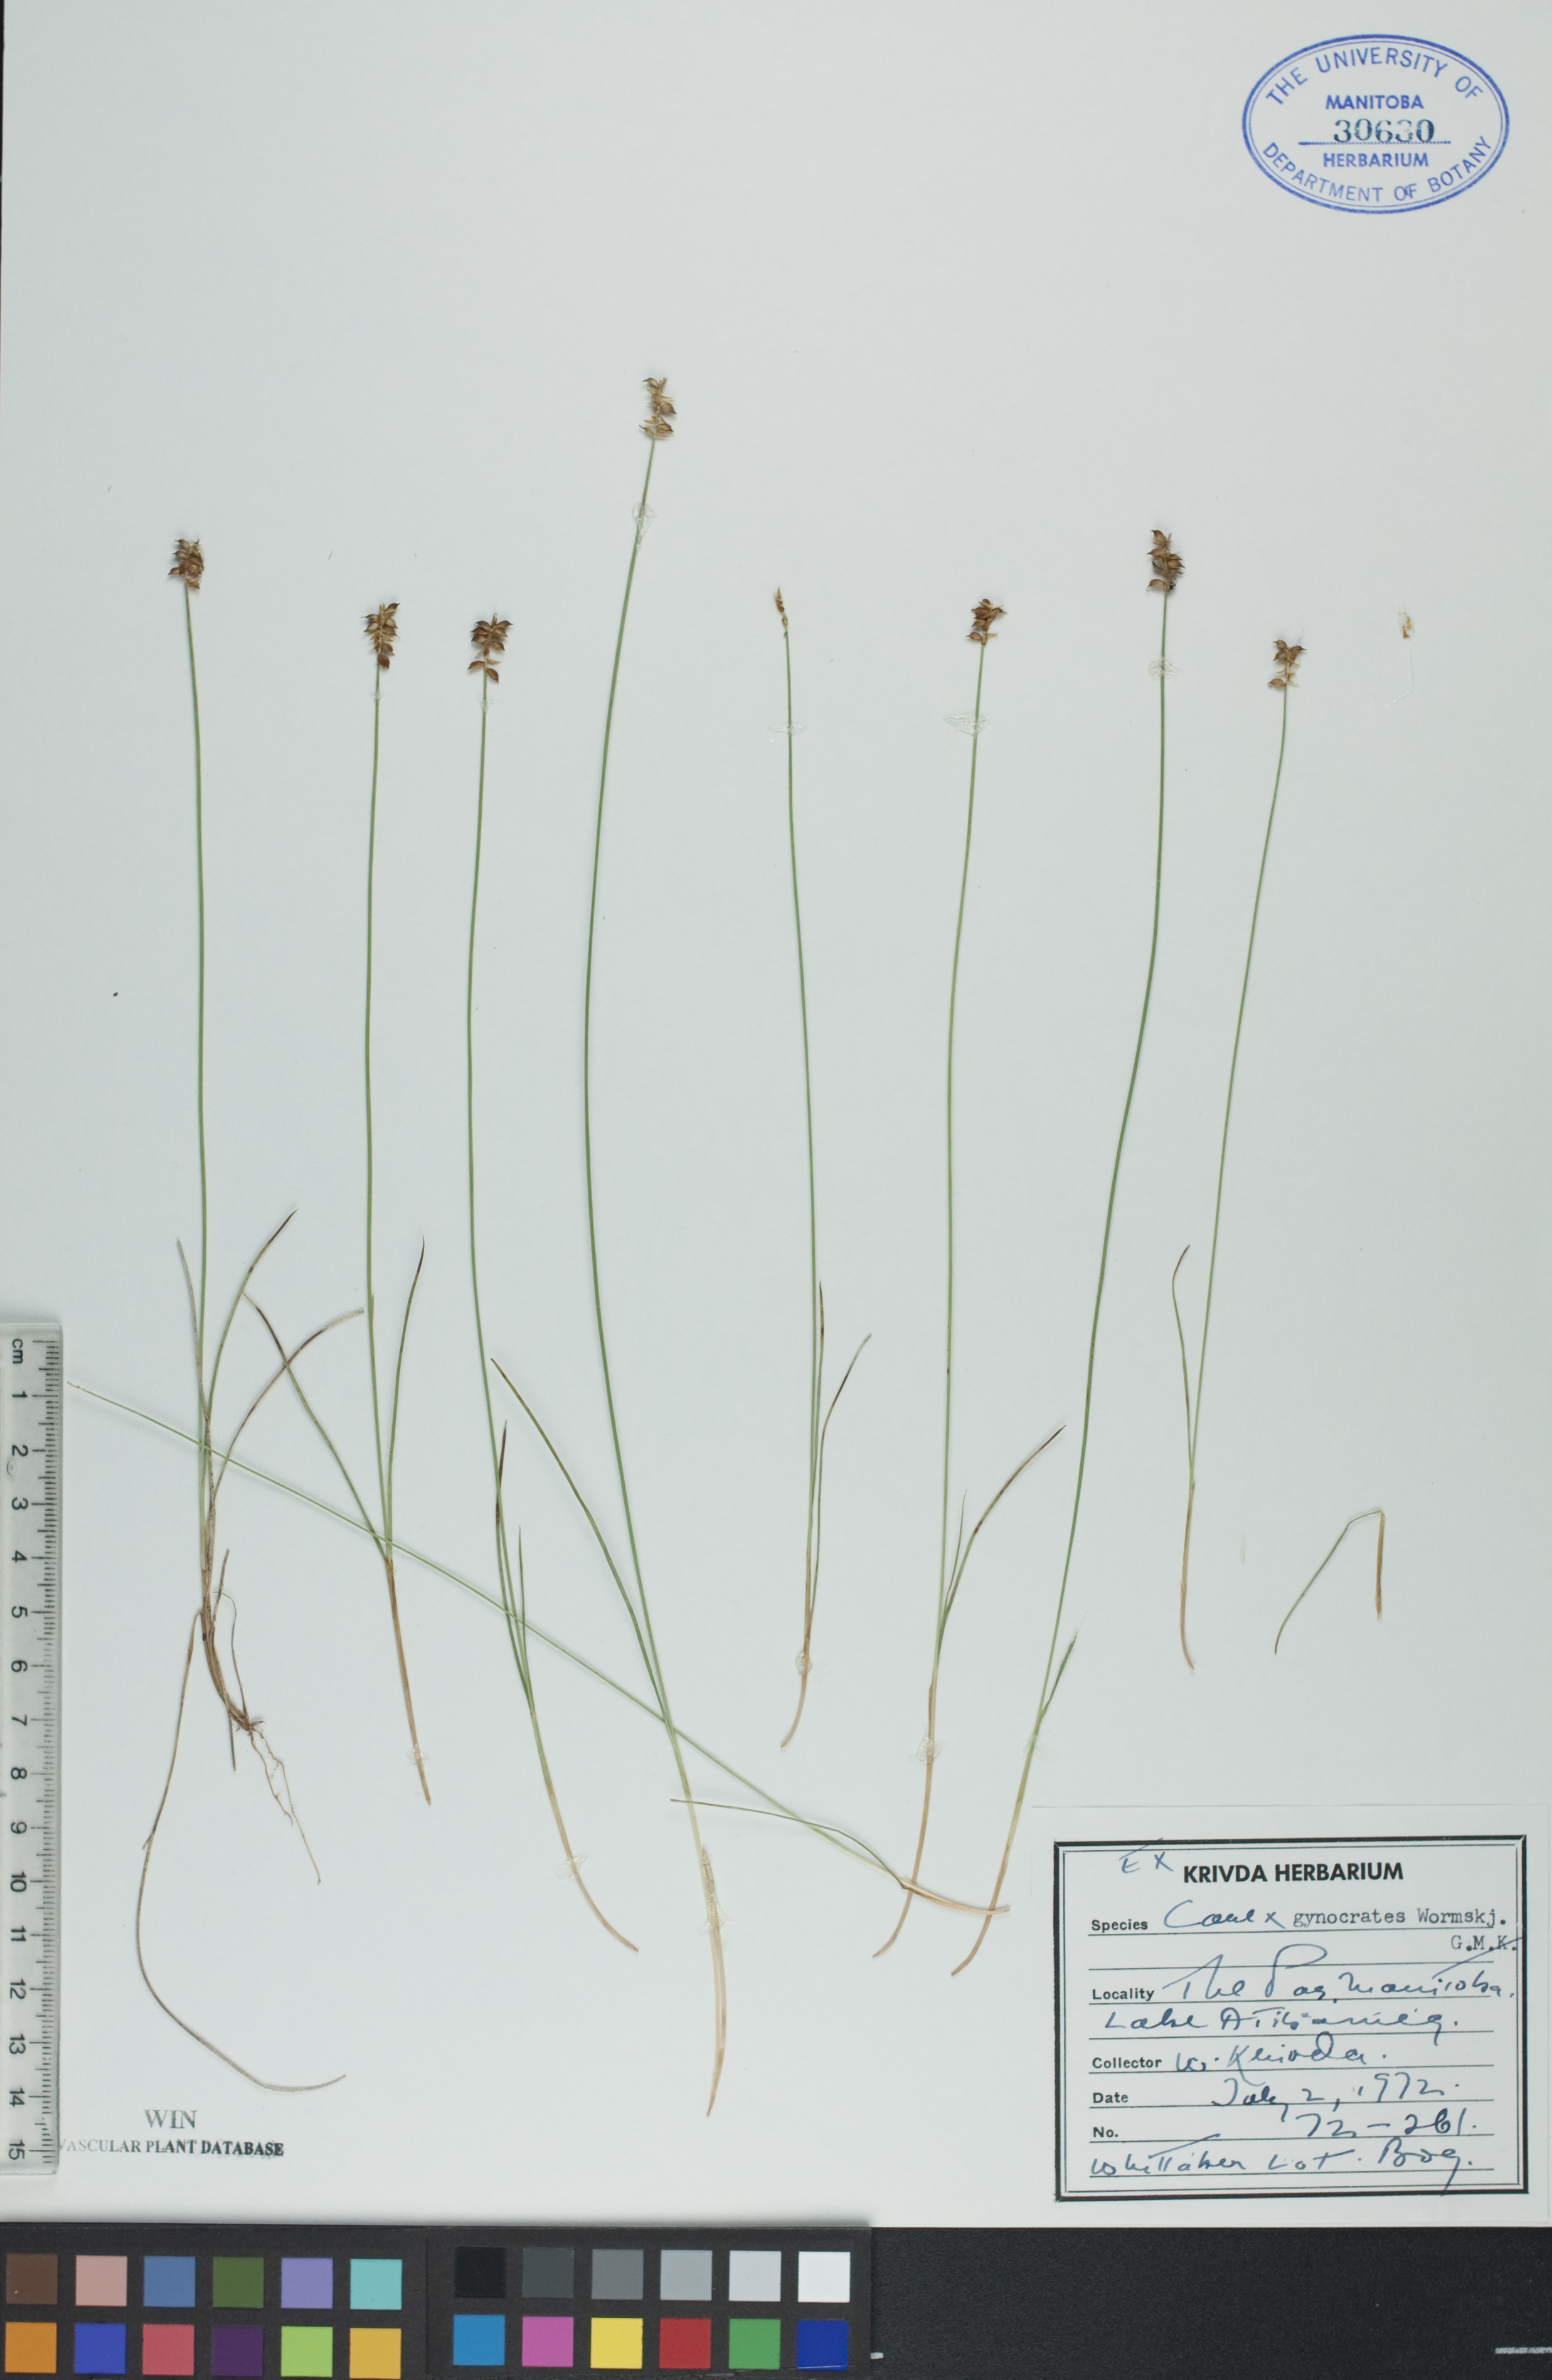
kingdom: Plantae
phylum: Tracheophyta
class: Liliopsida
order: Poales
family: Cyperaceae
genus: Carex
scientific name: Carex nardina
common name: Nard sedge
